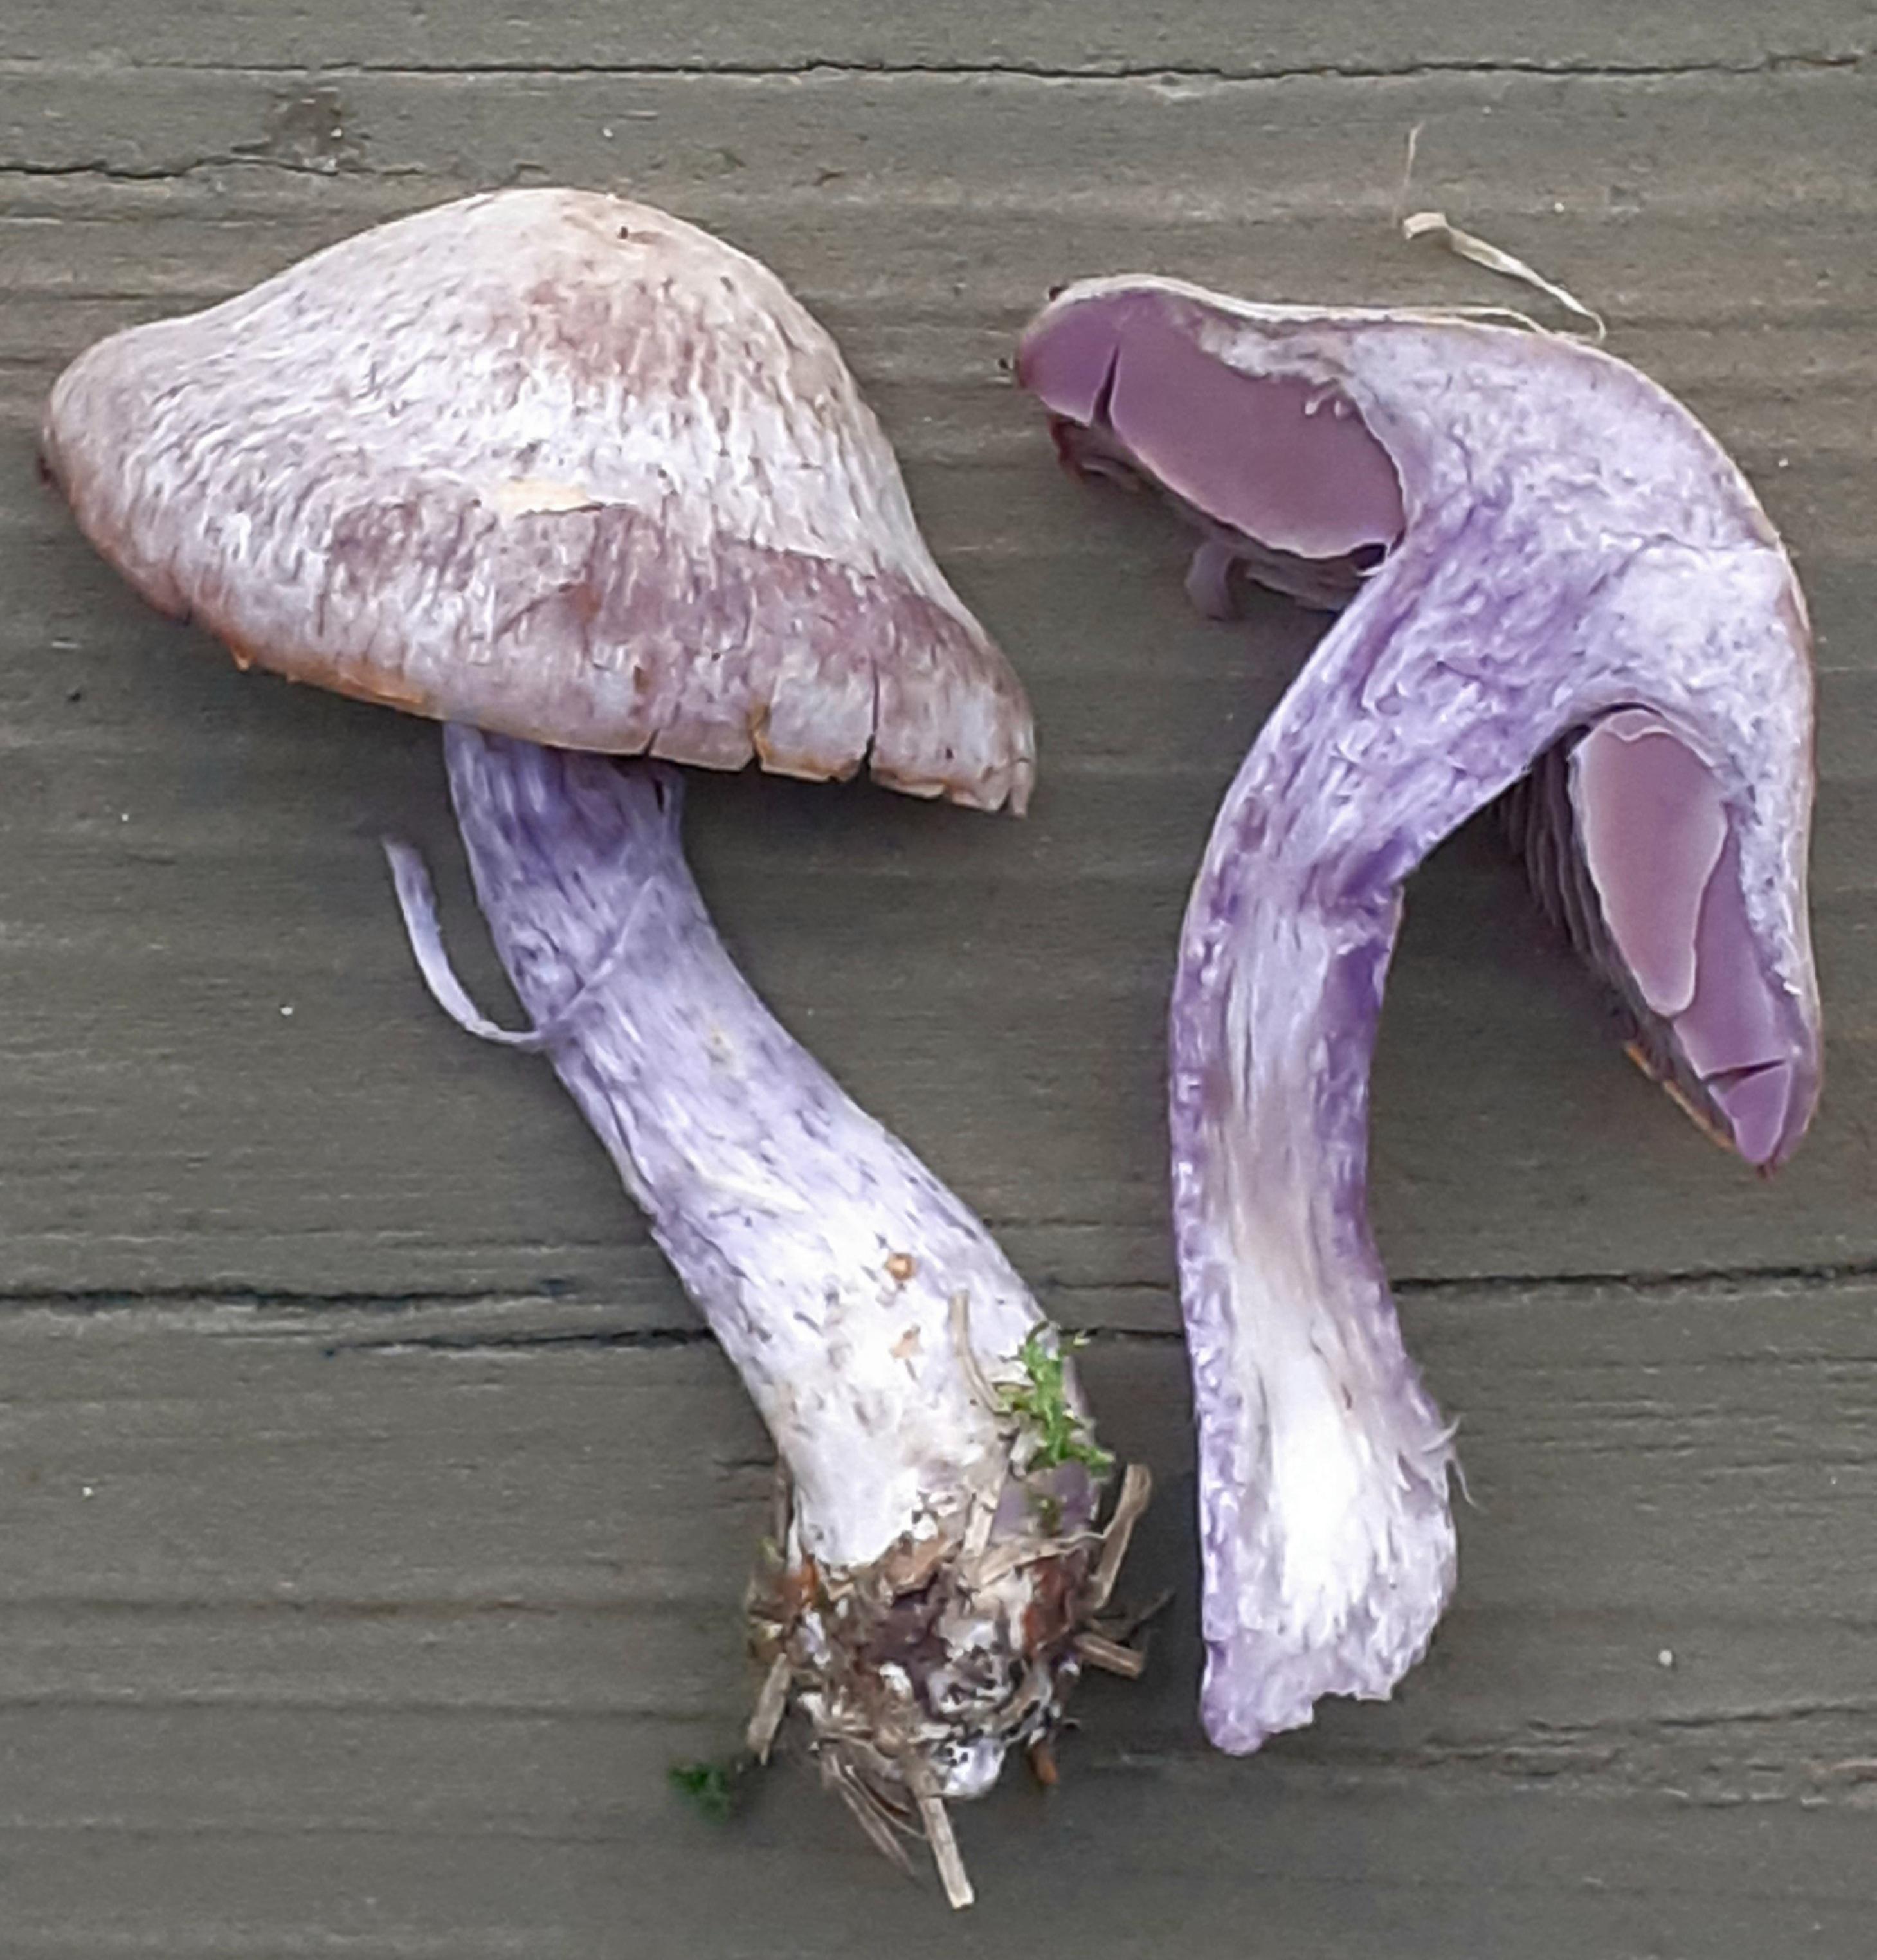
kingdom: Fungi
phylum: Basidiomycota
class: Agaricomycetes
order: Agaricales
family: Cortinariaceae
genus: Cortinarius
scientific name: Cortinarius camphoratus
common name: stinkende slørhat
